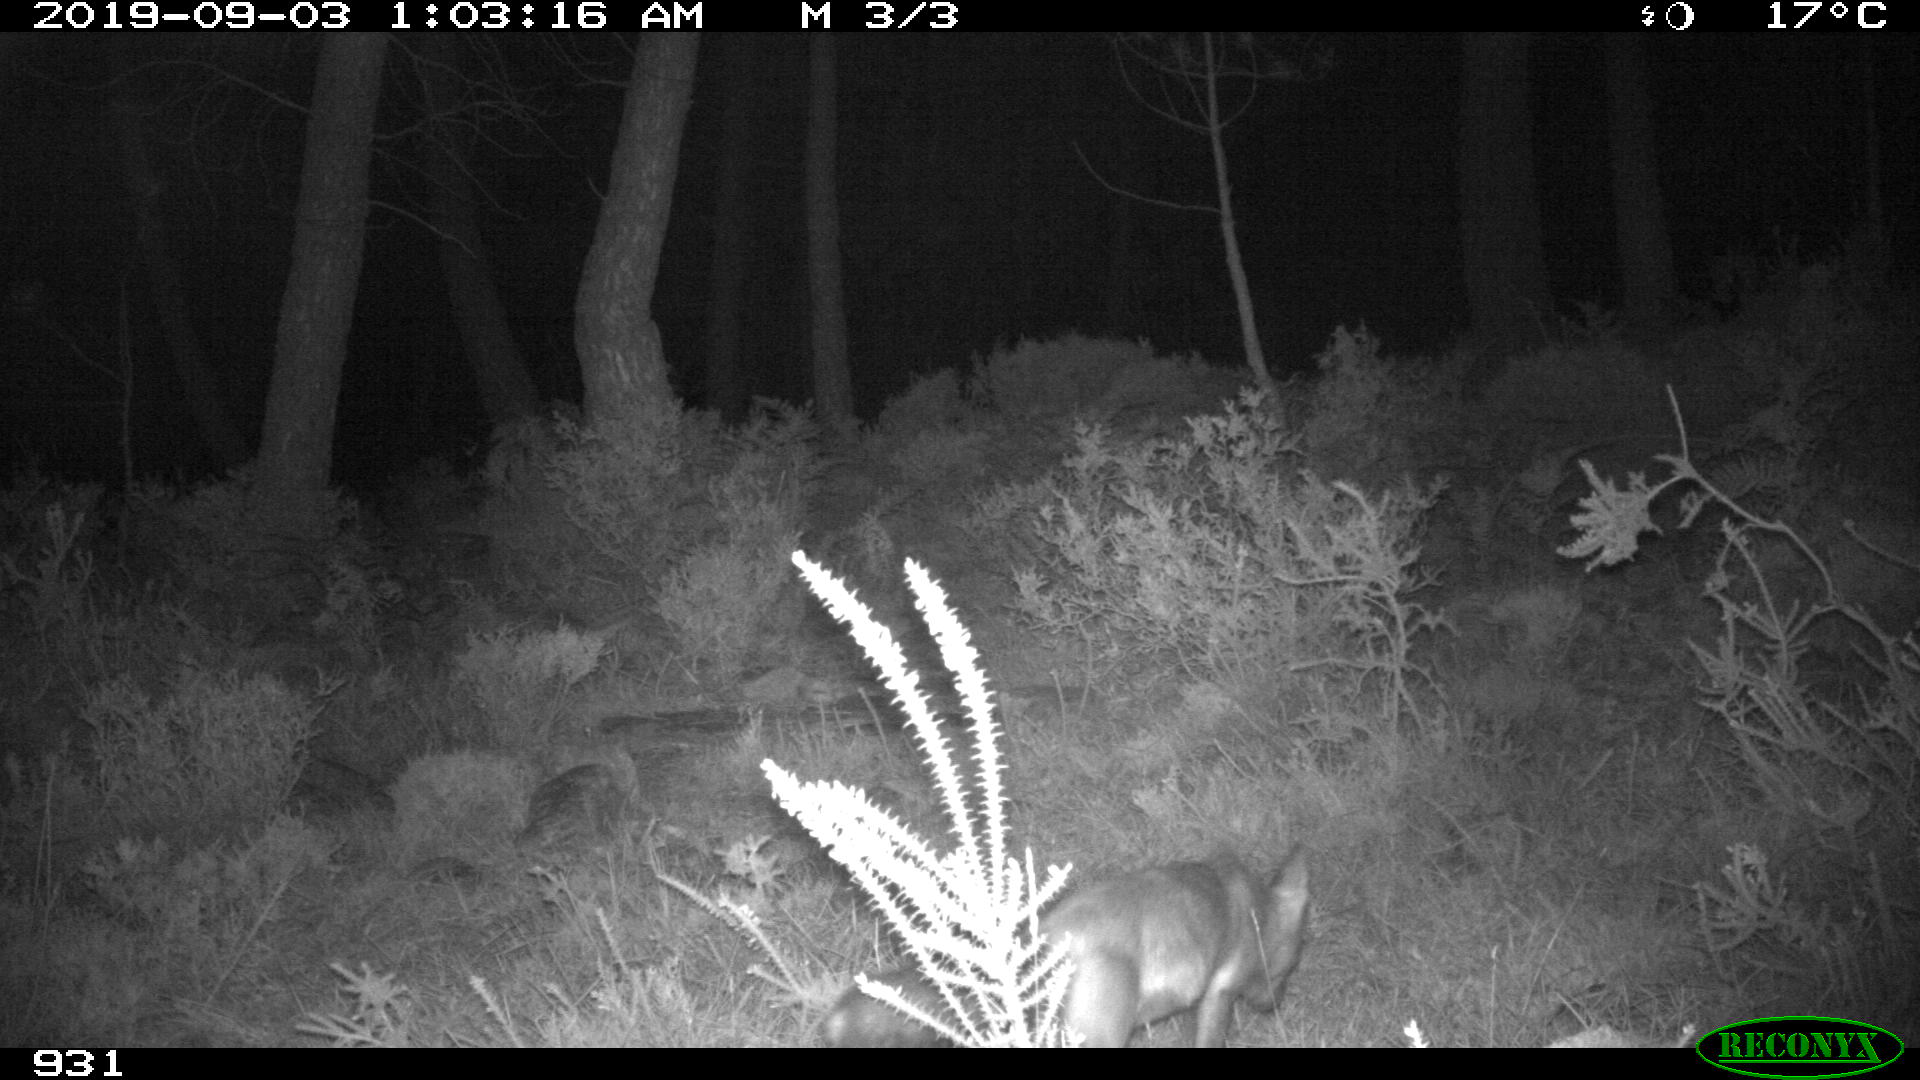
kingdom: Animalia
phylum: Chordata
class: Mammalia
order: Carnivora
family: Canidae
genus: Vulpes
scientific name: Vulpes vulpes
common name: Red fox
